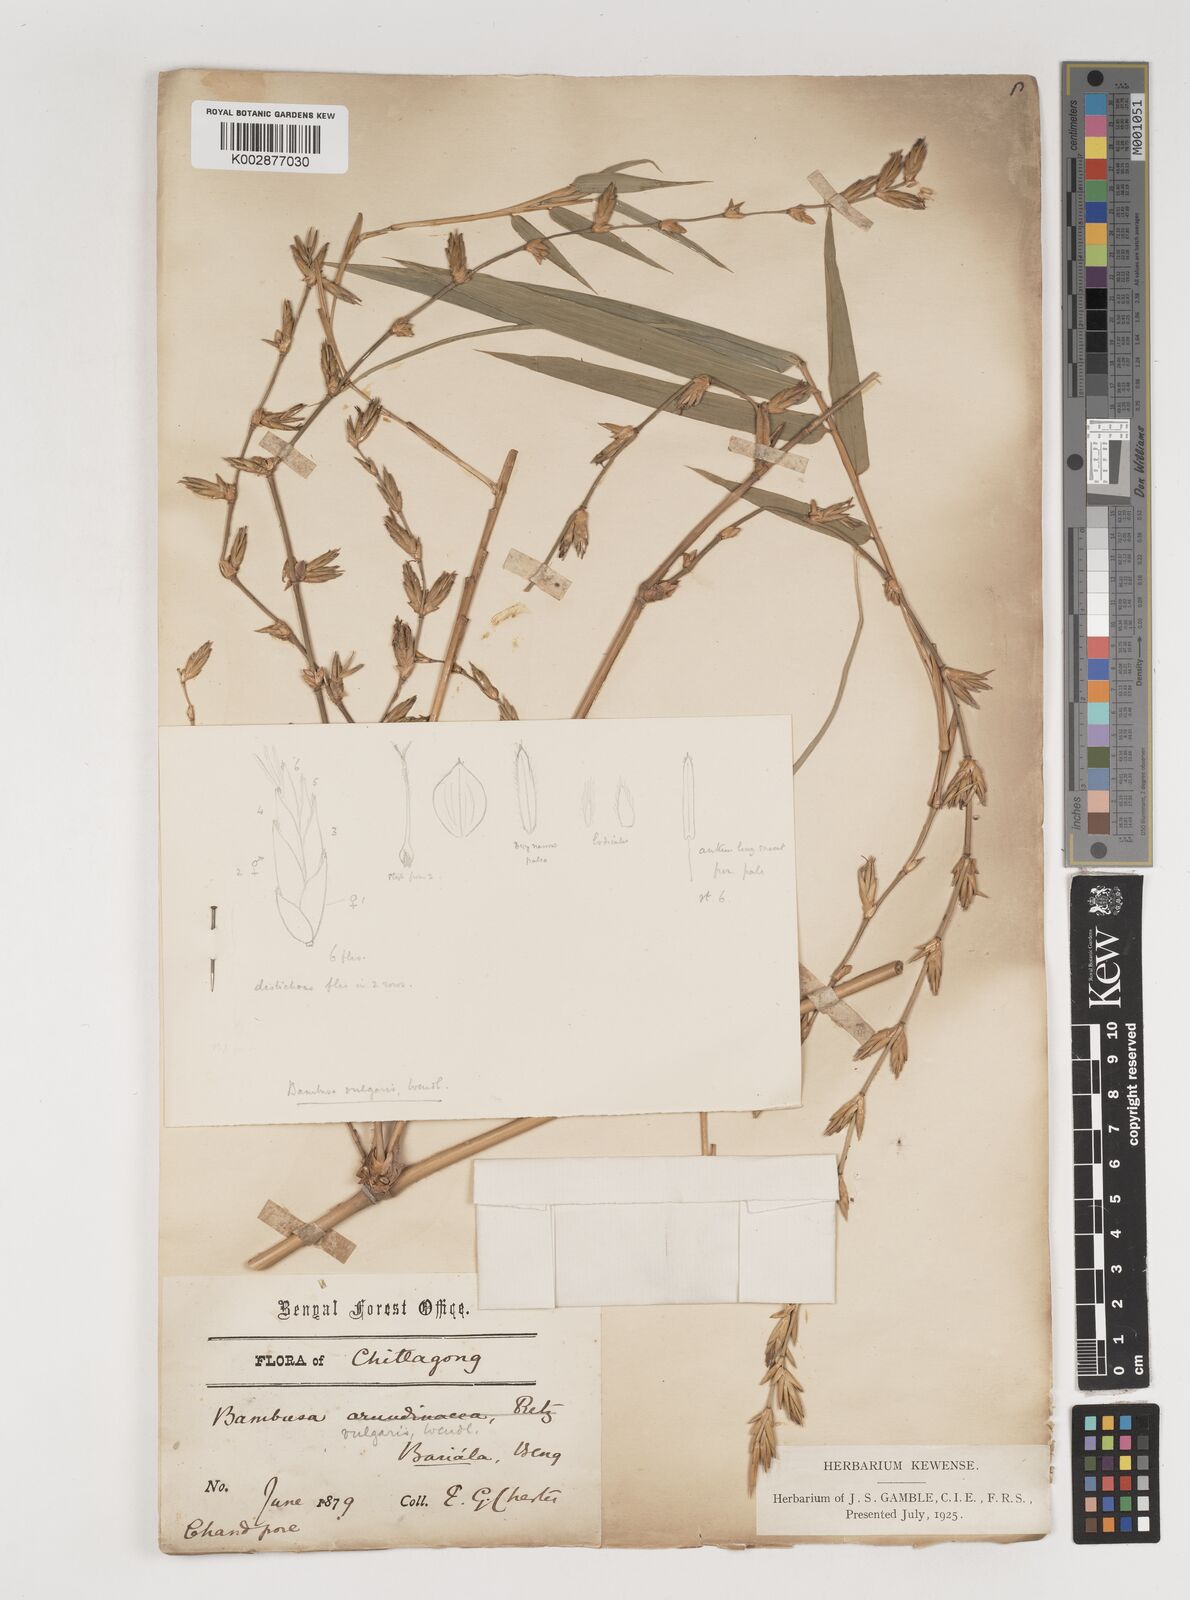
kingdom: Plantae
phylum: Tracheophyta
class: Liliopsida
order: Poales
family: Poaceae
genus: Bambusa
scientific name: Bambusa vulgaris
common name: Common bamboo
